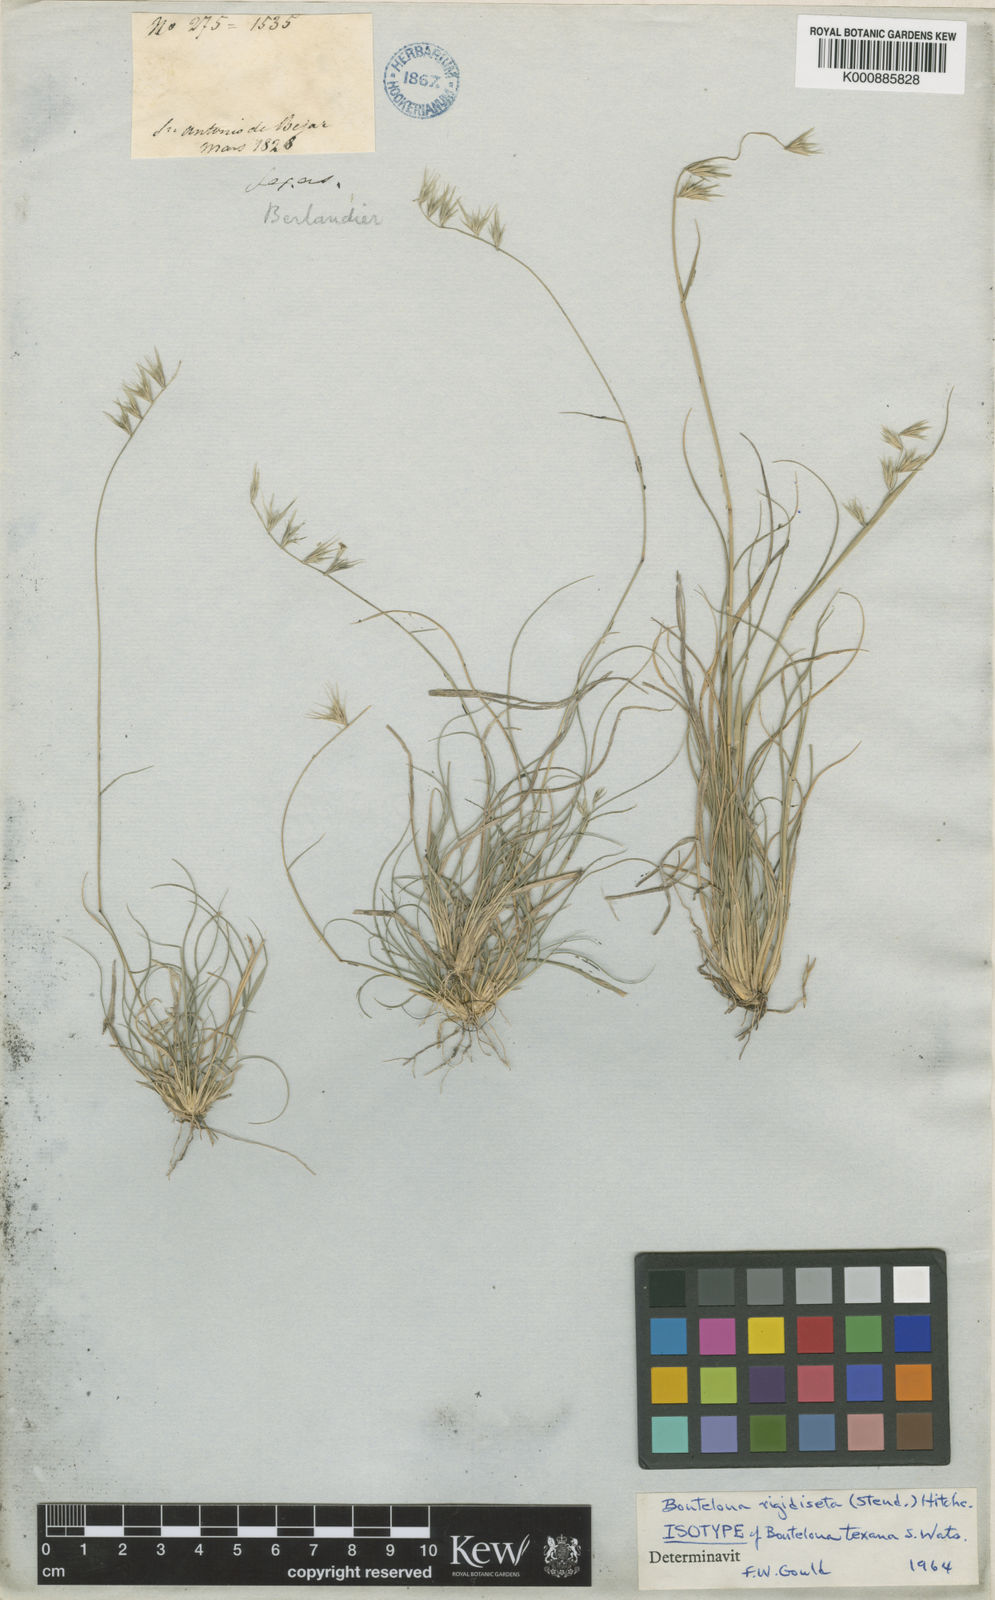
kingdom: Plantae
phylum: Tracheophyta
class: Liliopsida
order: Poales
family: Poaceae
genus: Bouteloua
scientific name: Bouteloua rigidiseta
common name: Texas grama
